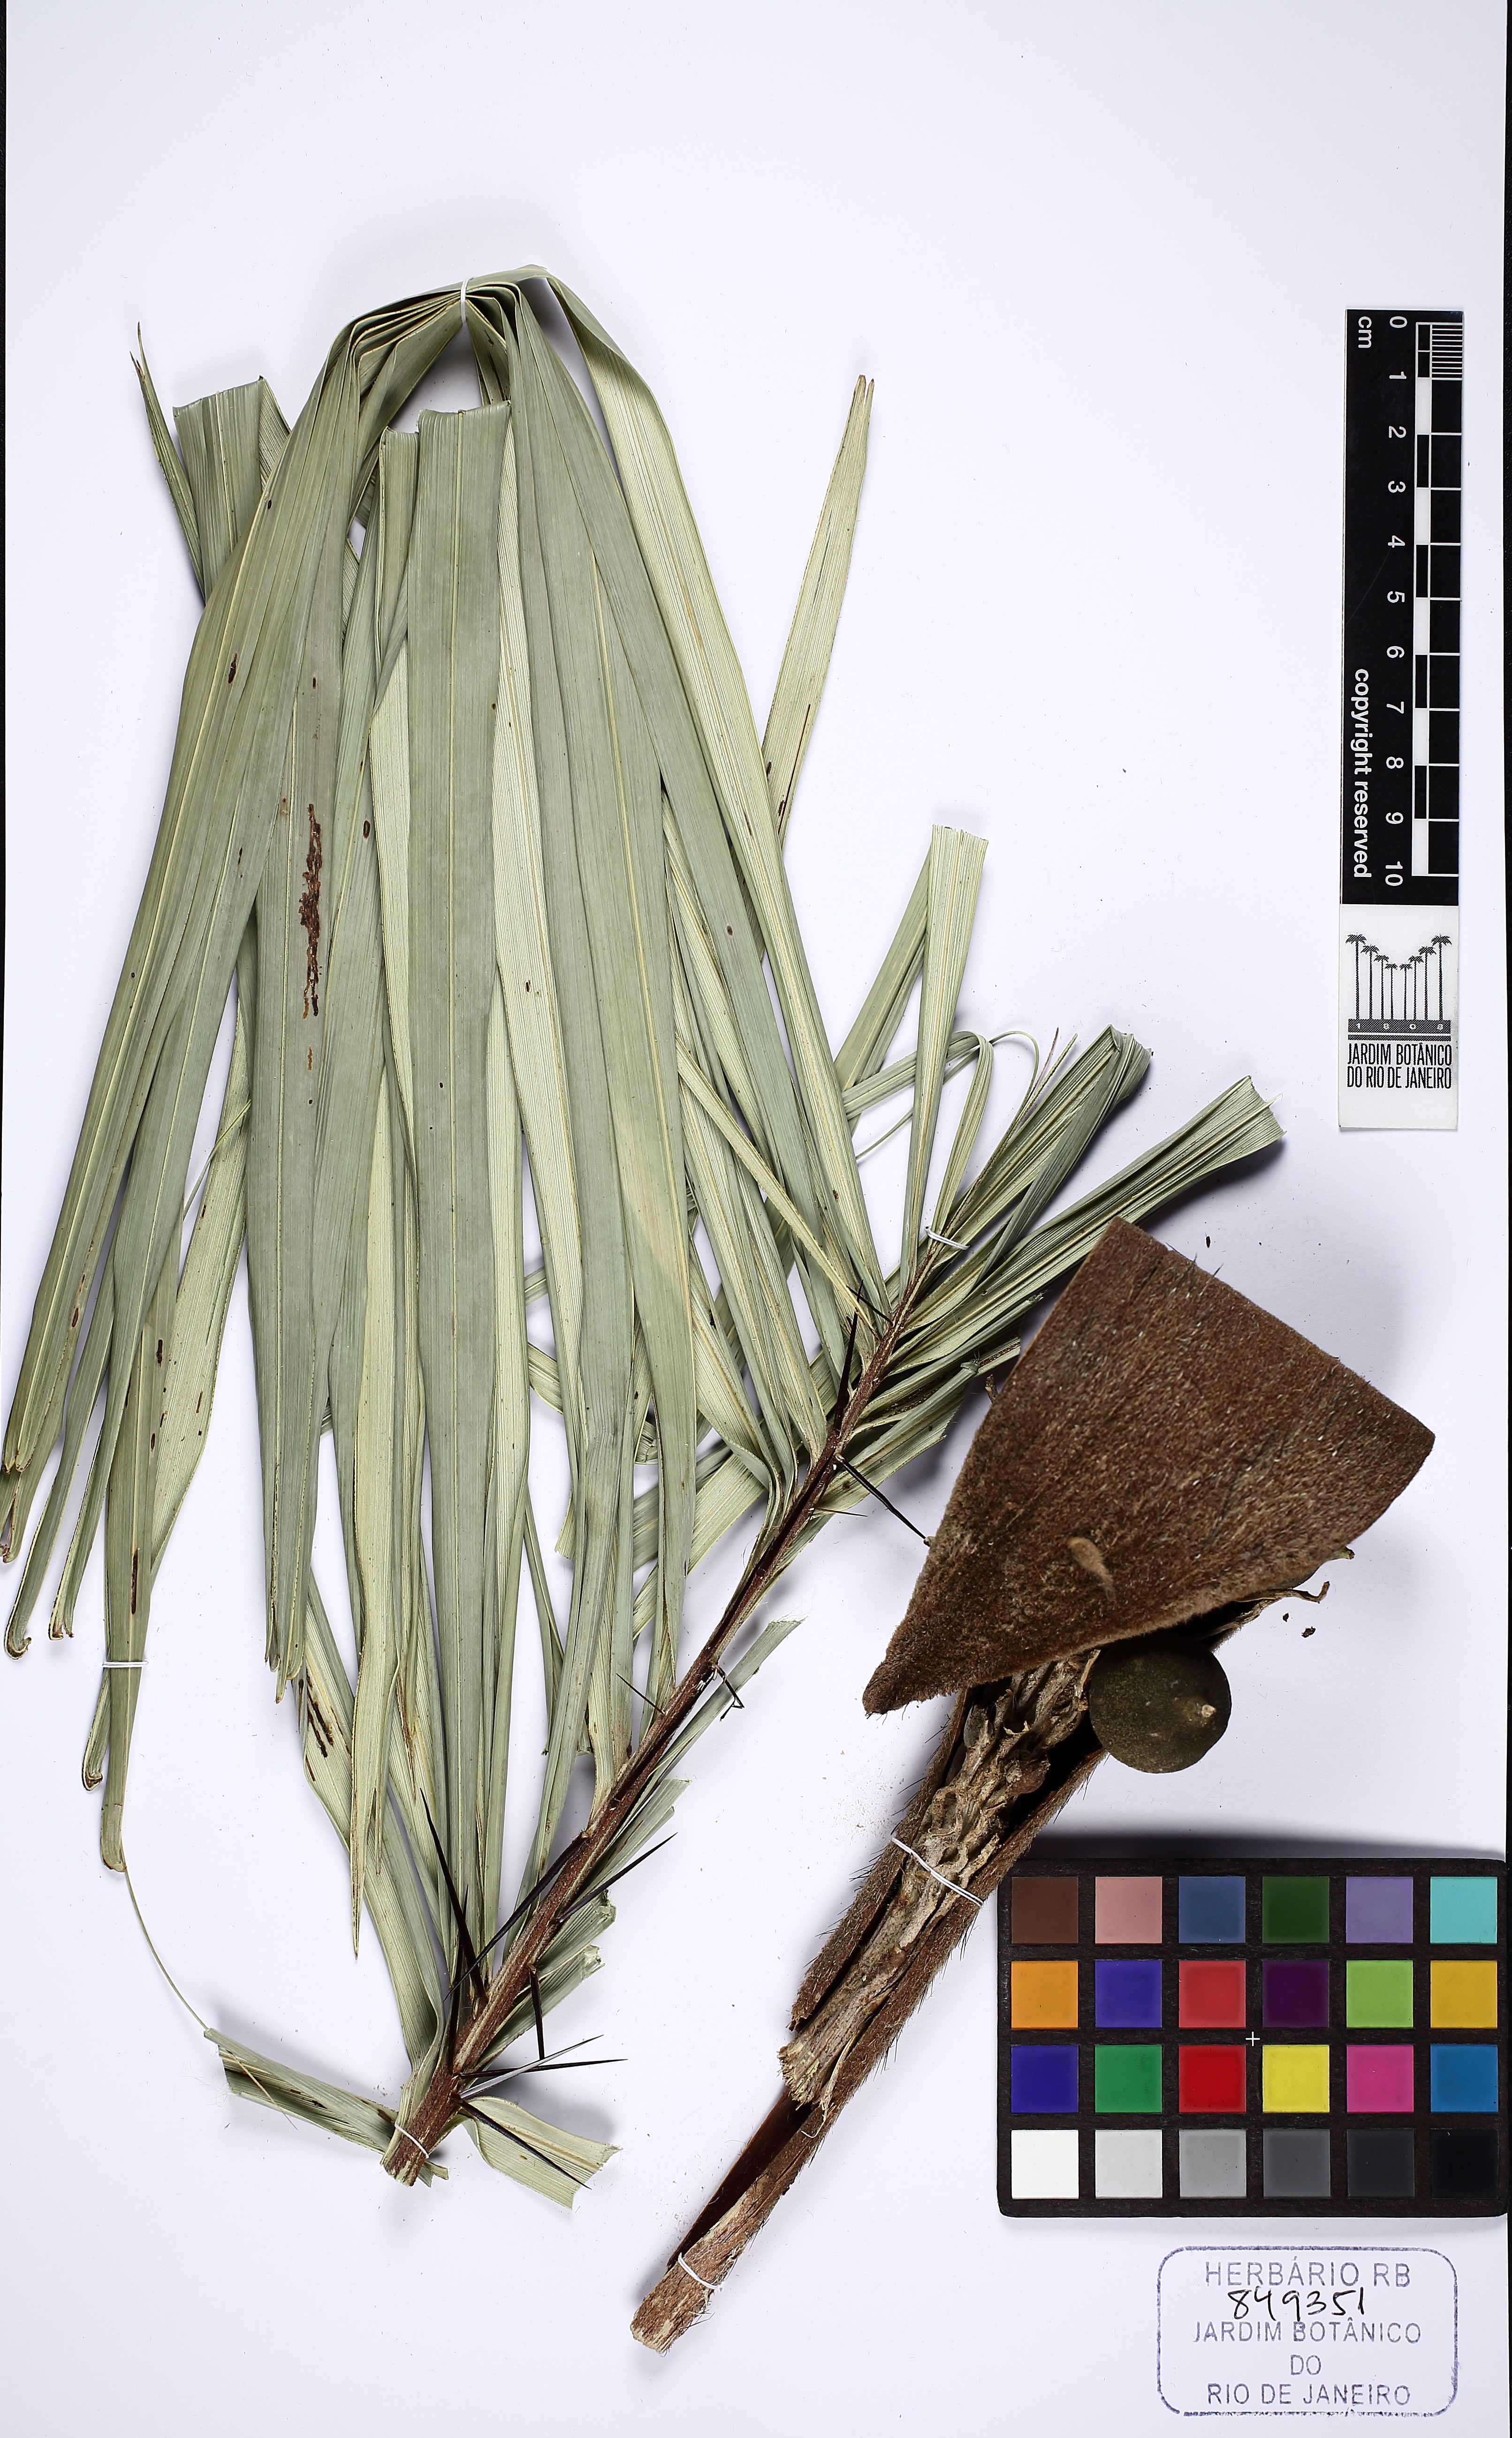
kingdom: Plantae
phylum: Tracheophyta
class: Liliopsida
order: Arecales
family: Arecaceae
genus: Astrocaryum
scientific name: Astrocaryum campestre
